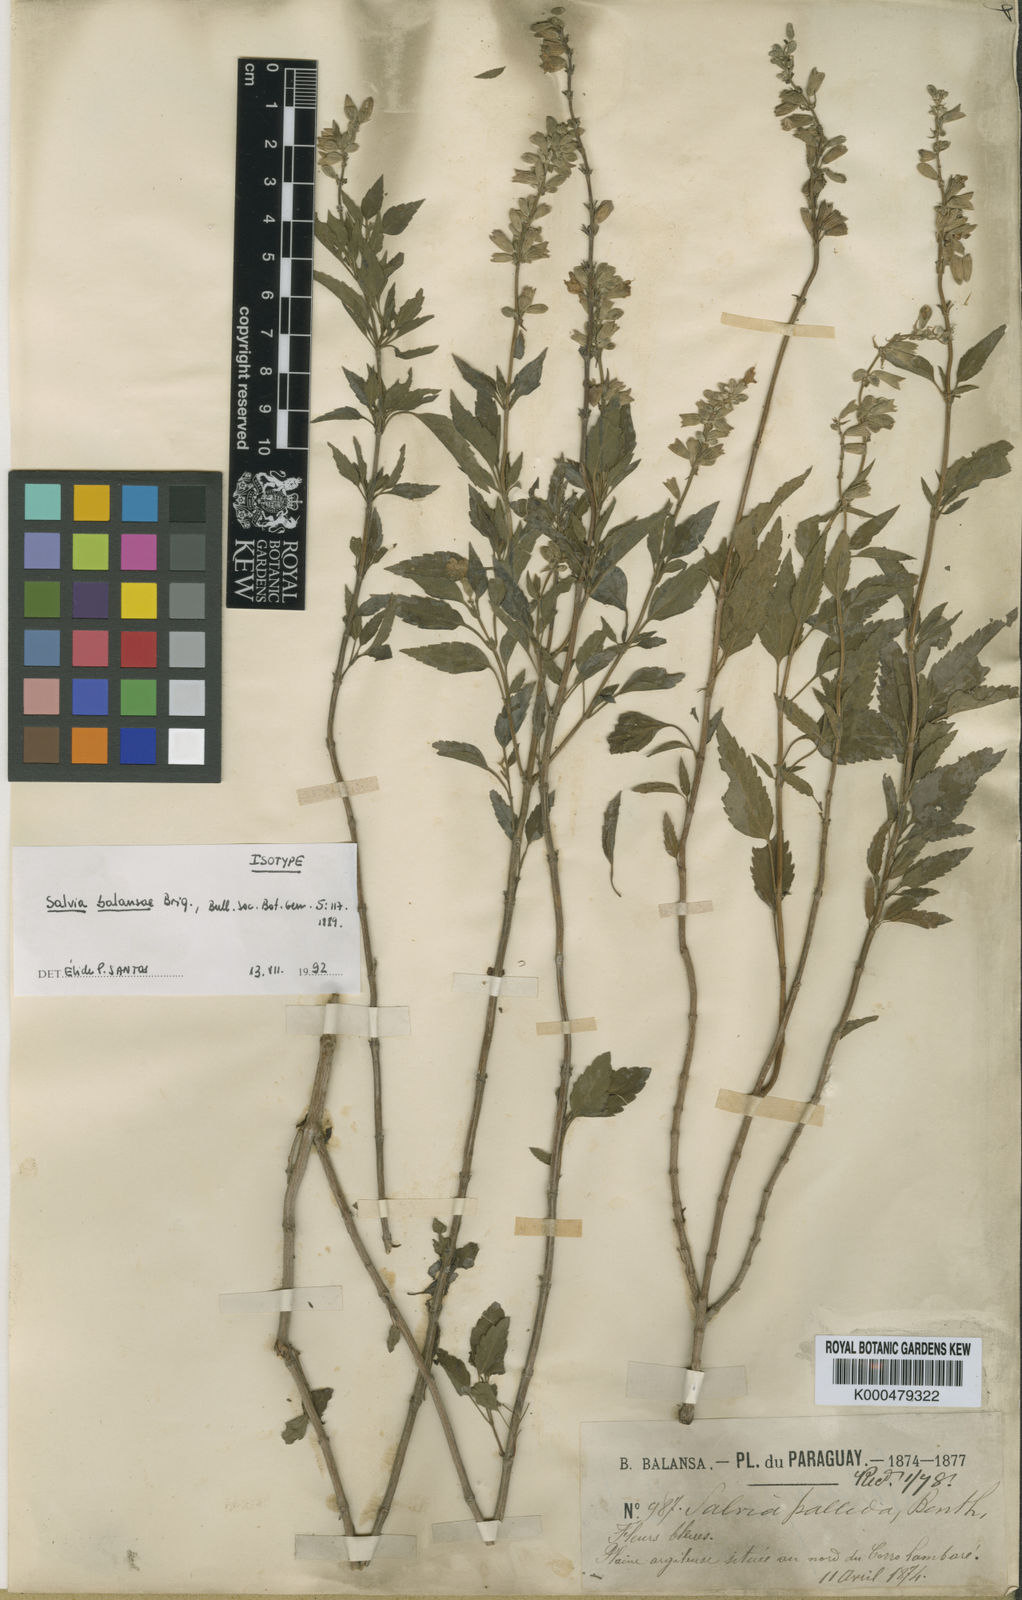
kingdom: Plantae
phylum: Tracheophyta
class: Magnoliopsida
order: Lamiales
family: Lamiaceae
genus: Salvia
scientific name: Salvia
